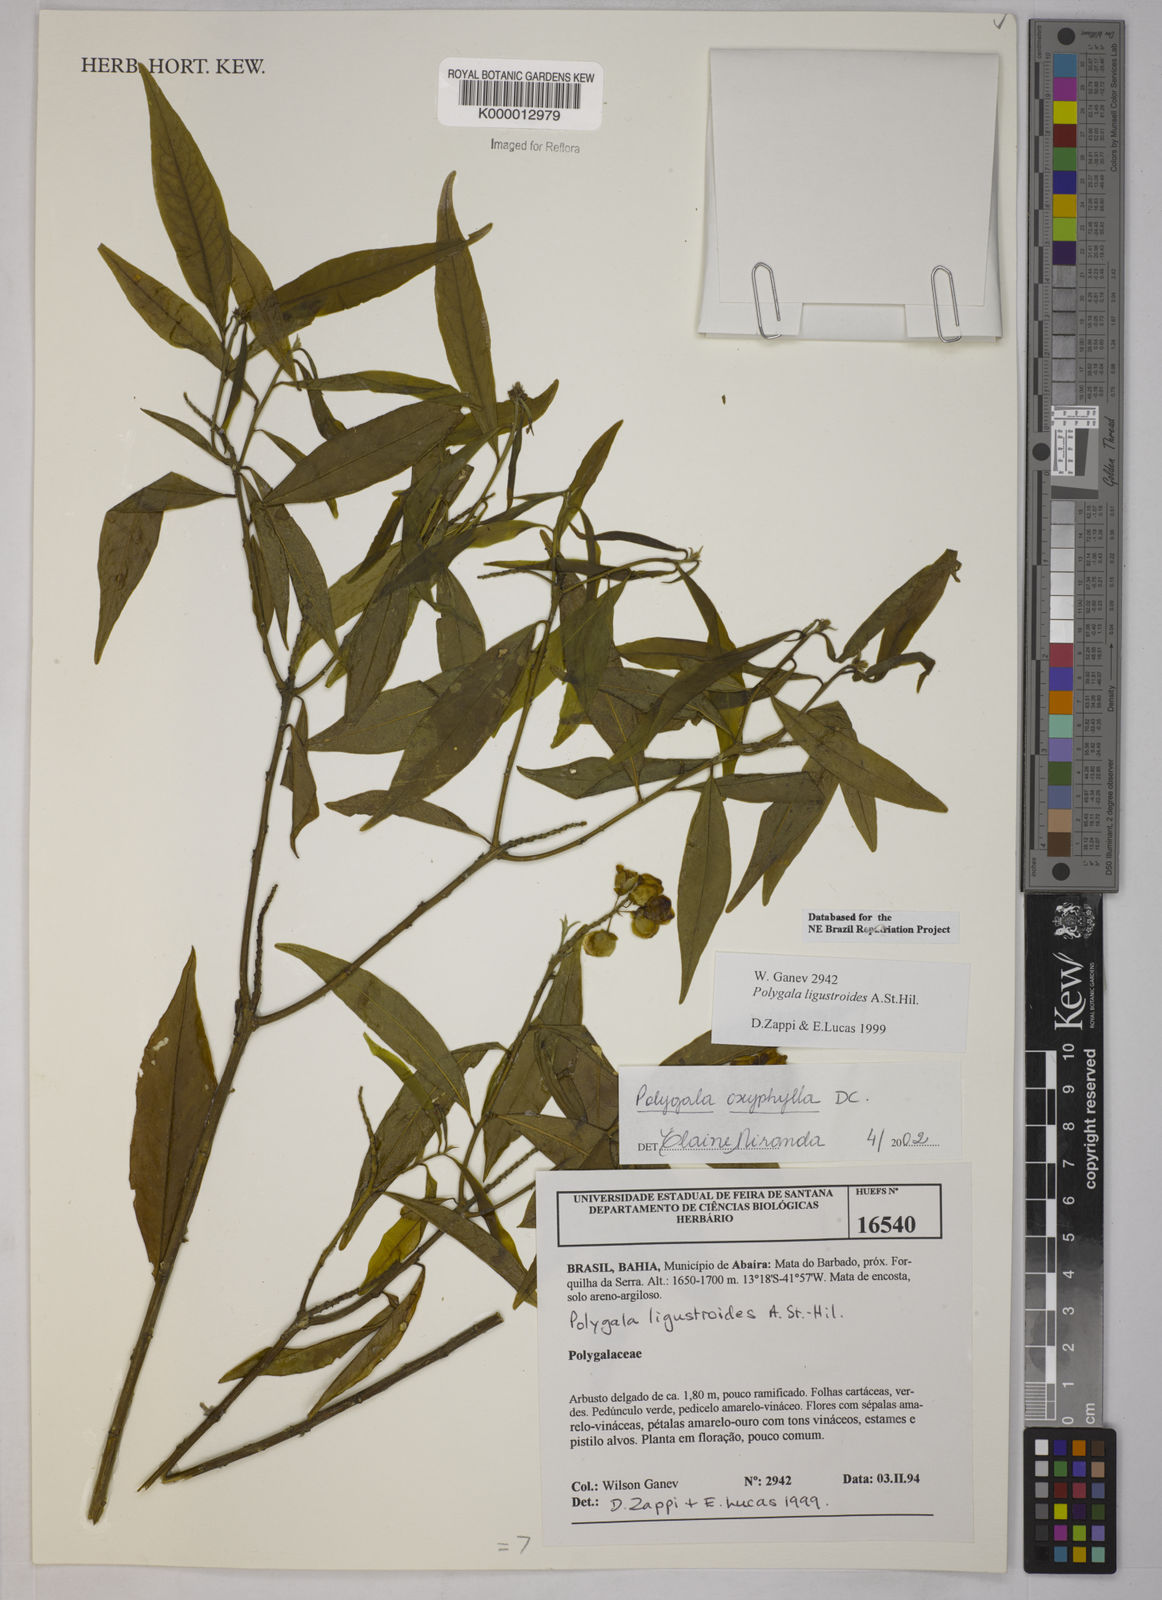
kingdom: Plantae
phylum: Tracheophyta
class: Magnoliopsida
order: Fabales
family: Polygalaceae
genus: Caamembeca
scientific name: Caamembeca oxyphylla
